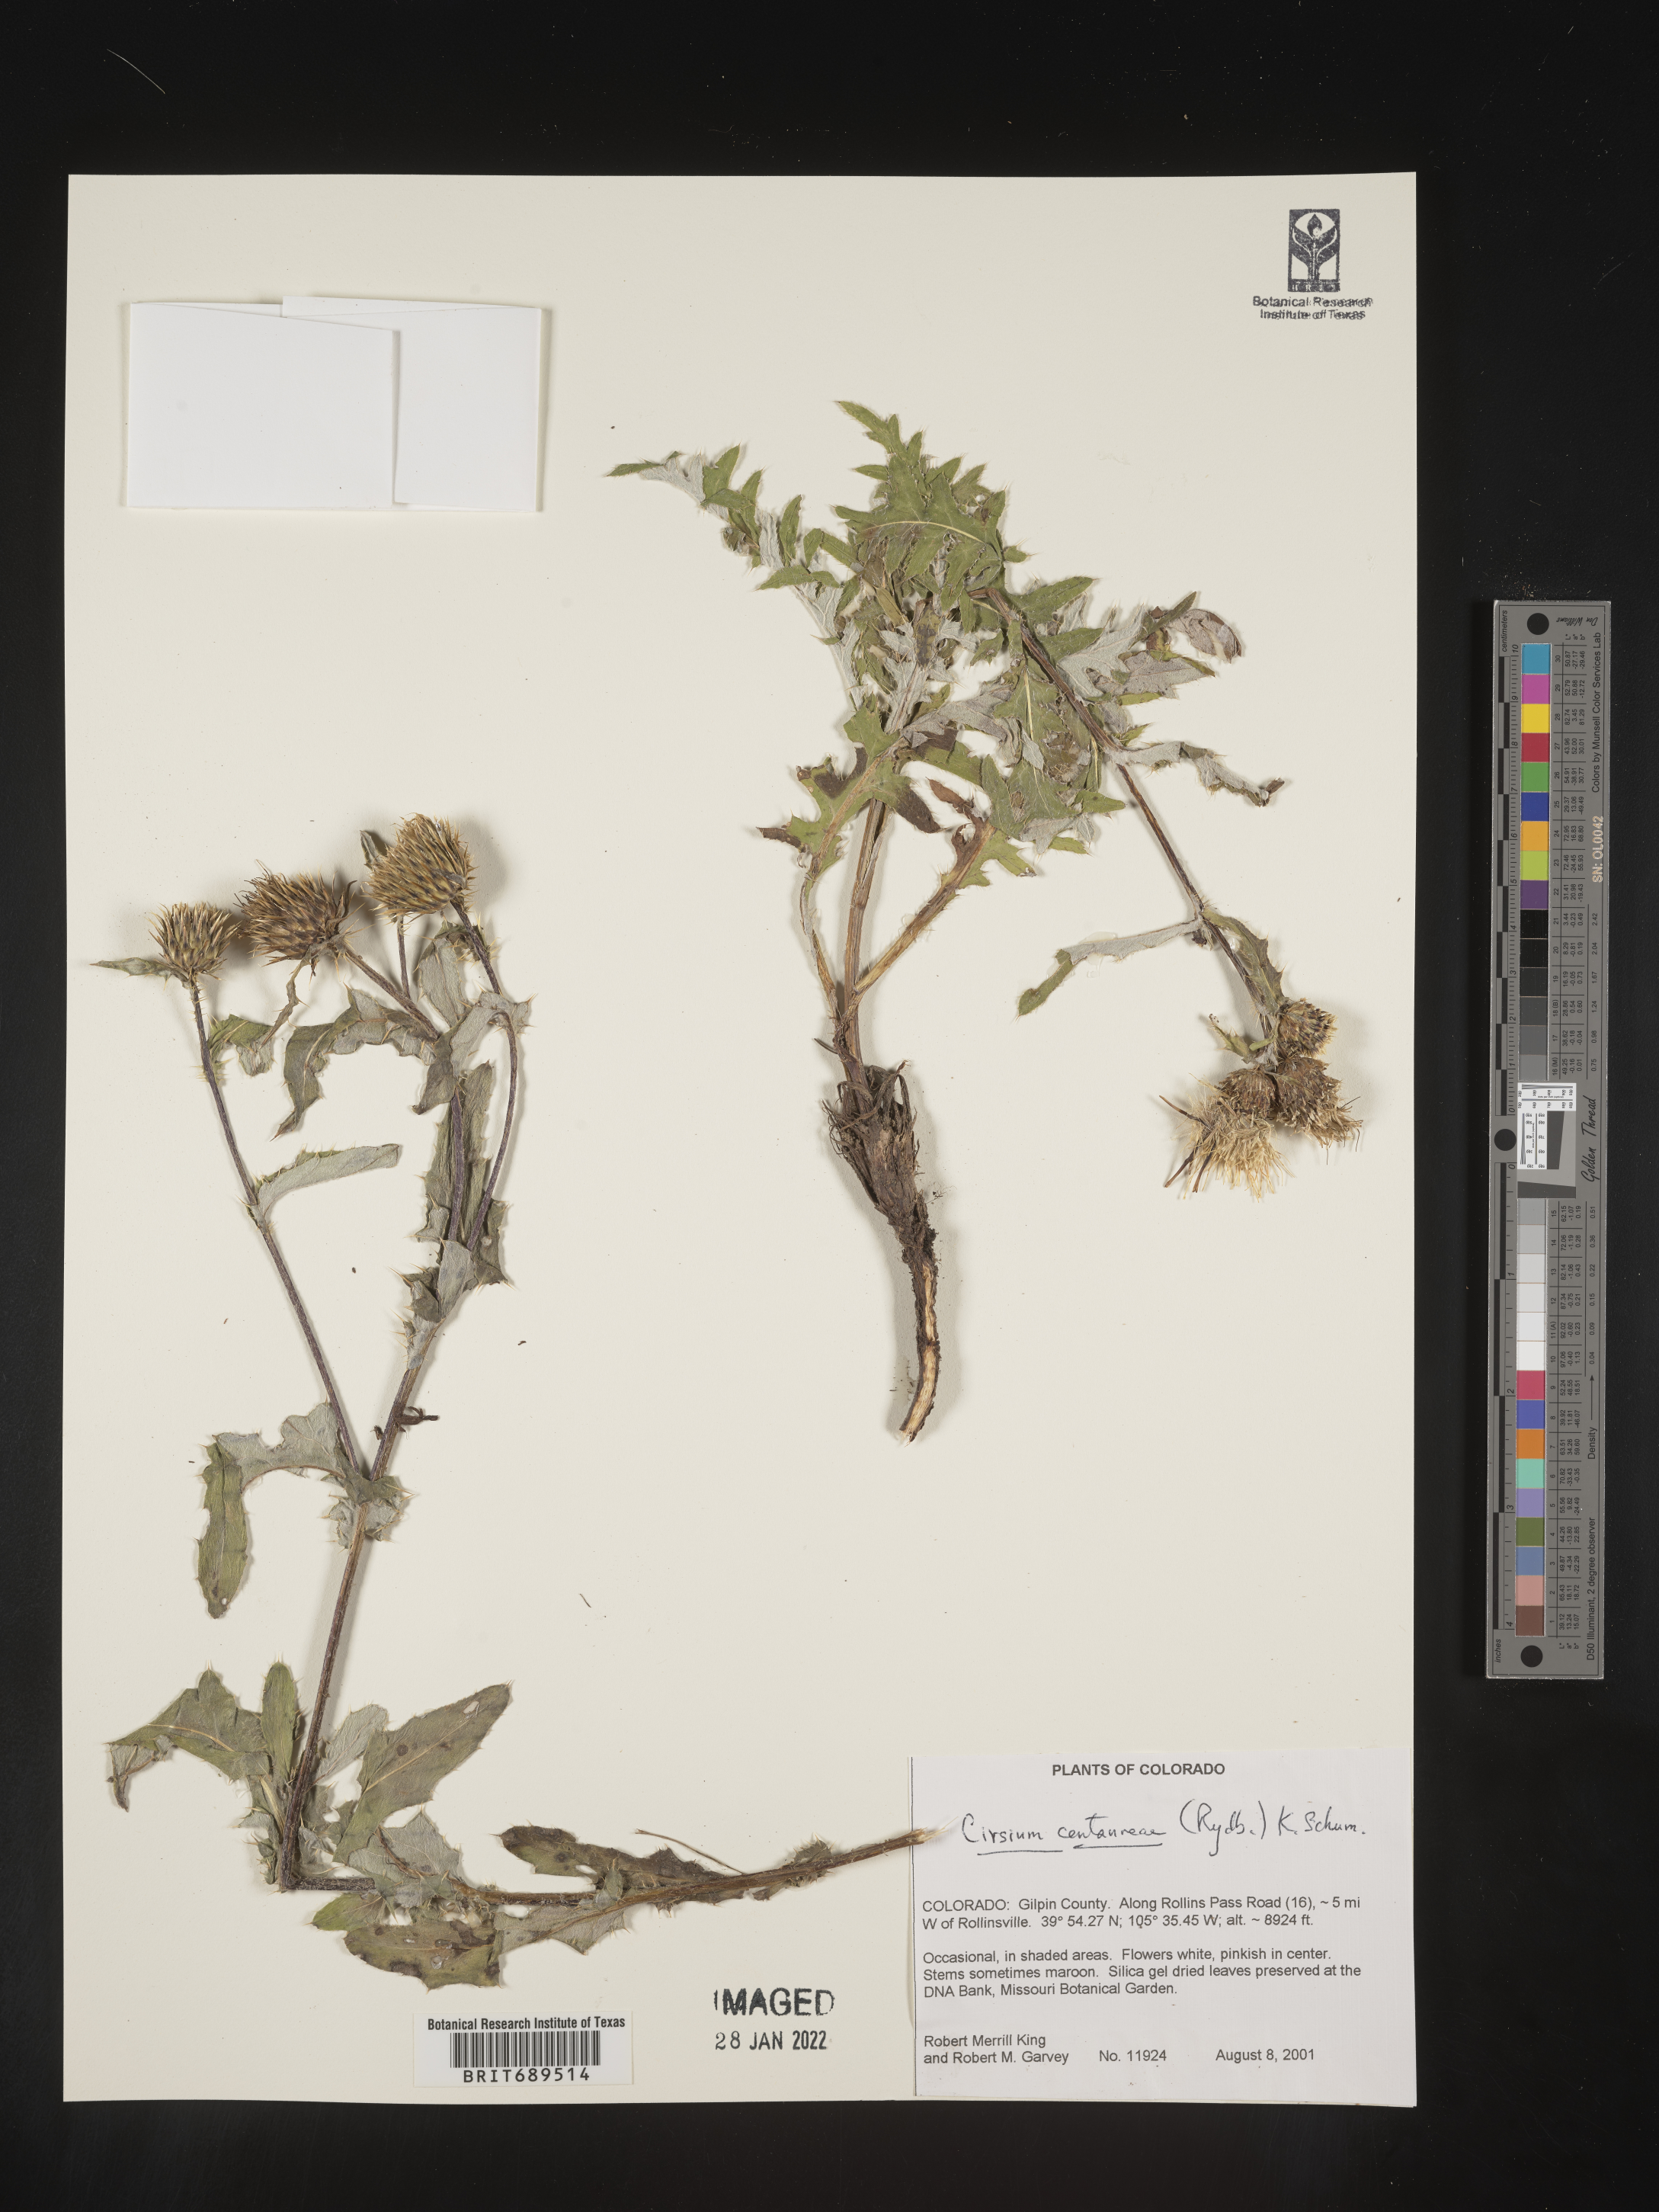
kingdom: Plantae
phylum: Tracheophyta
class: Magnoliopsida
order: Asterales
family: Asteraceae
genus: Cirsium
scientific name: Cirsium centaureae
